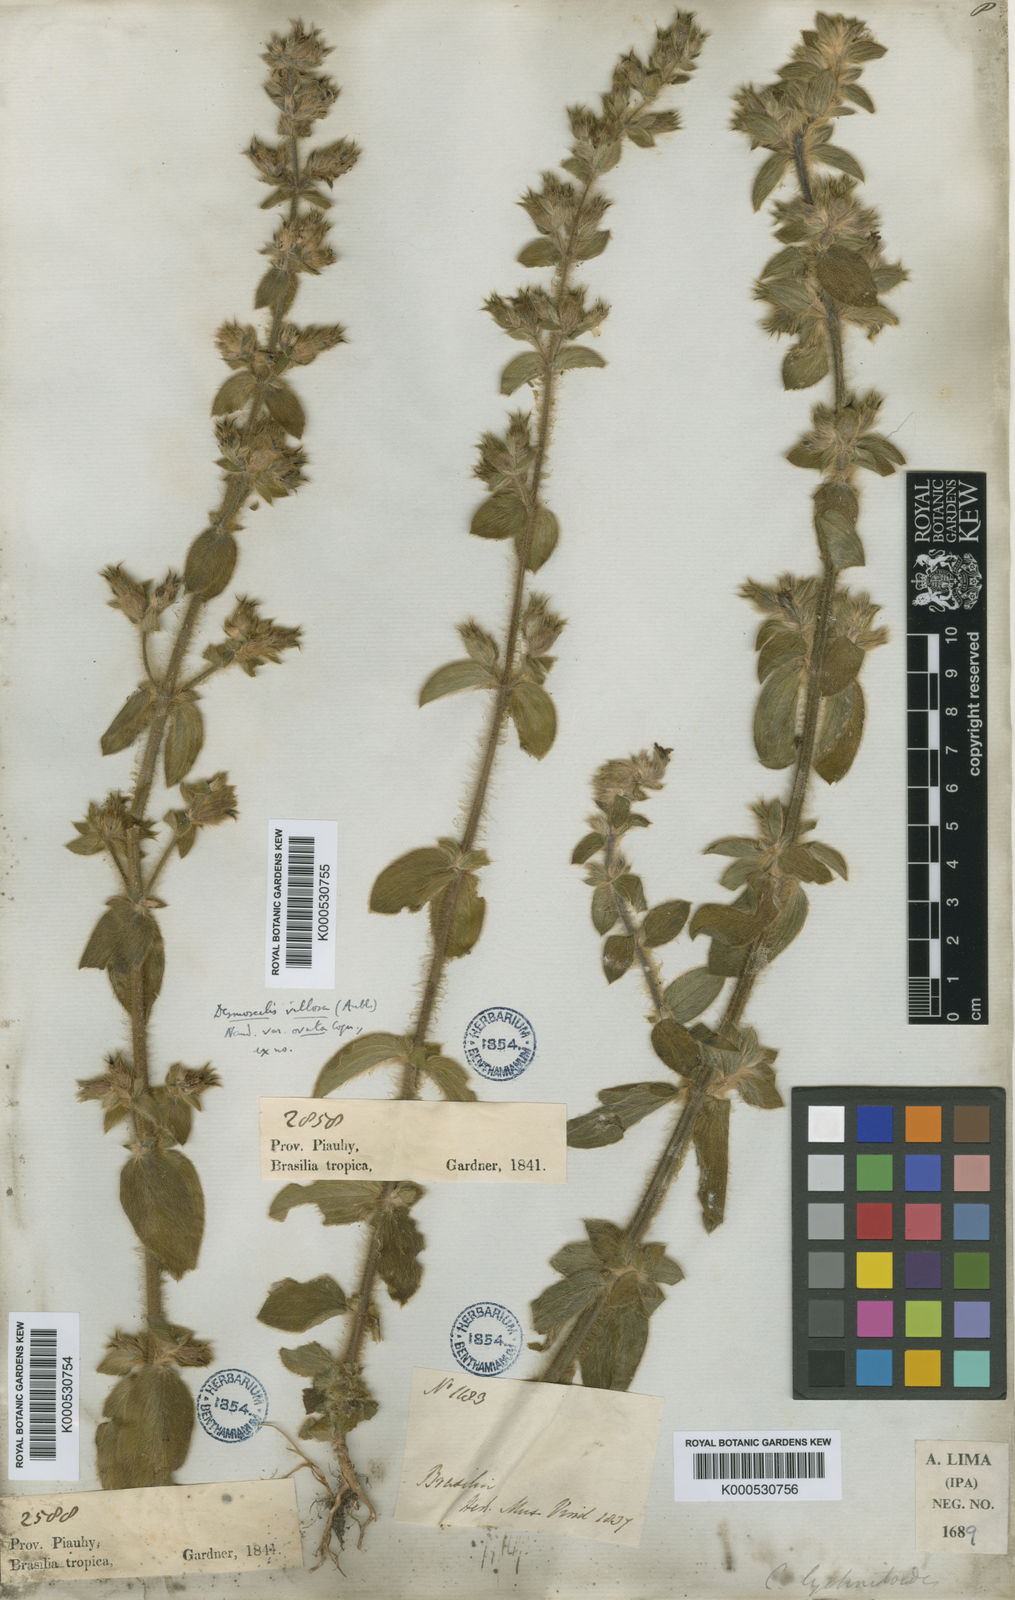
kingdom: Plantae
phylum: Tracheophyta
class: Magnoliopsida
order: Myrtales
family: Melastomataceae
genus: Desmoscelis
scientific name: Desmoscelis villosa
